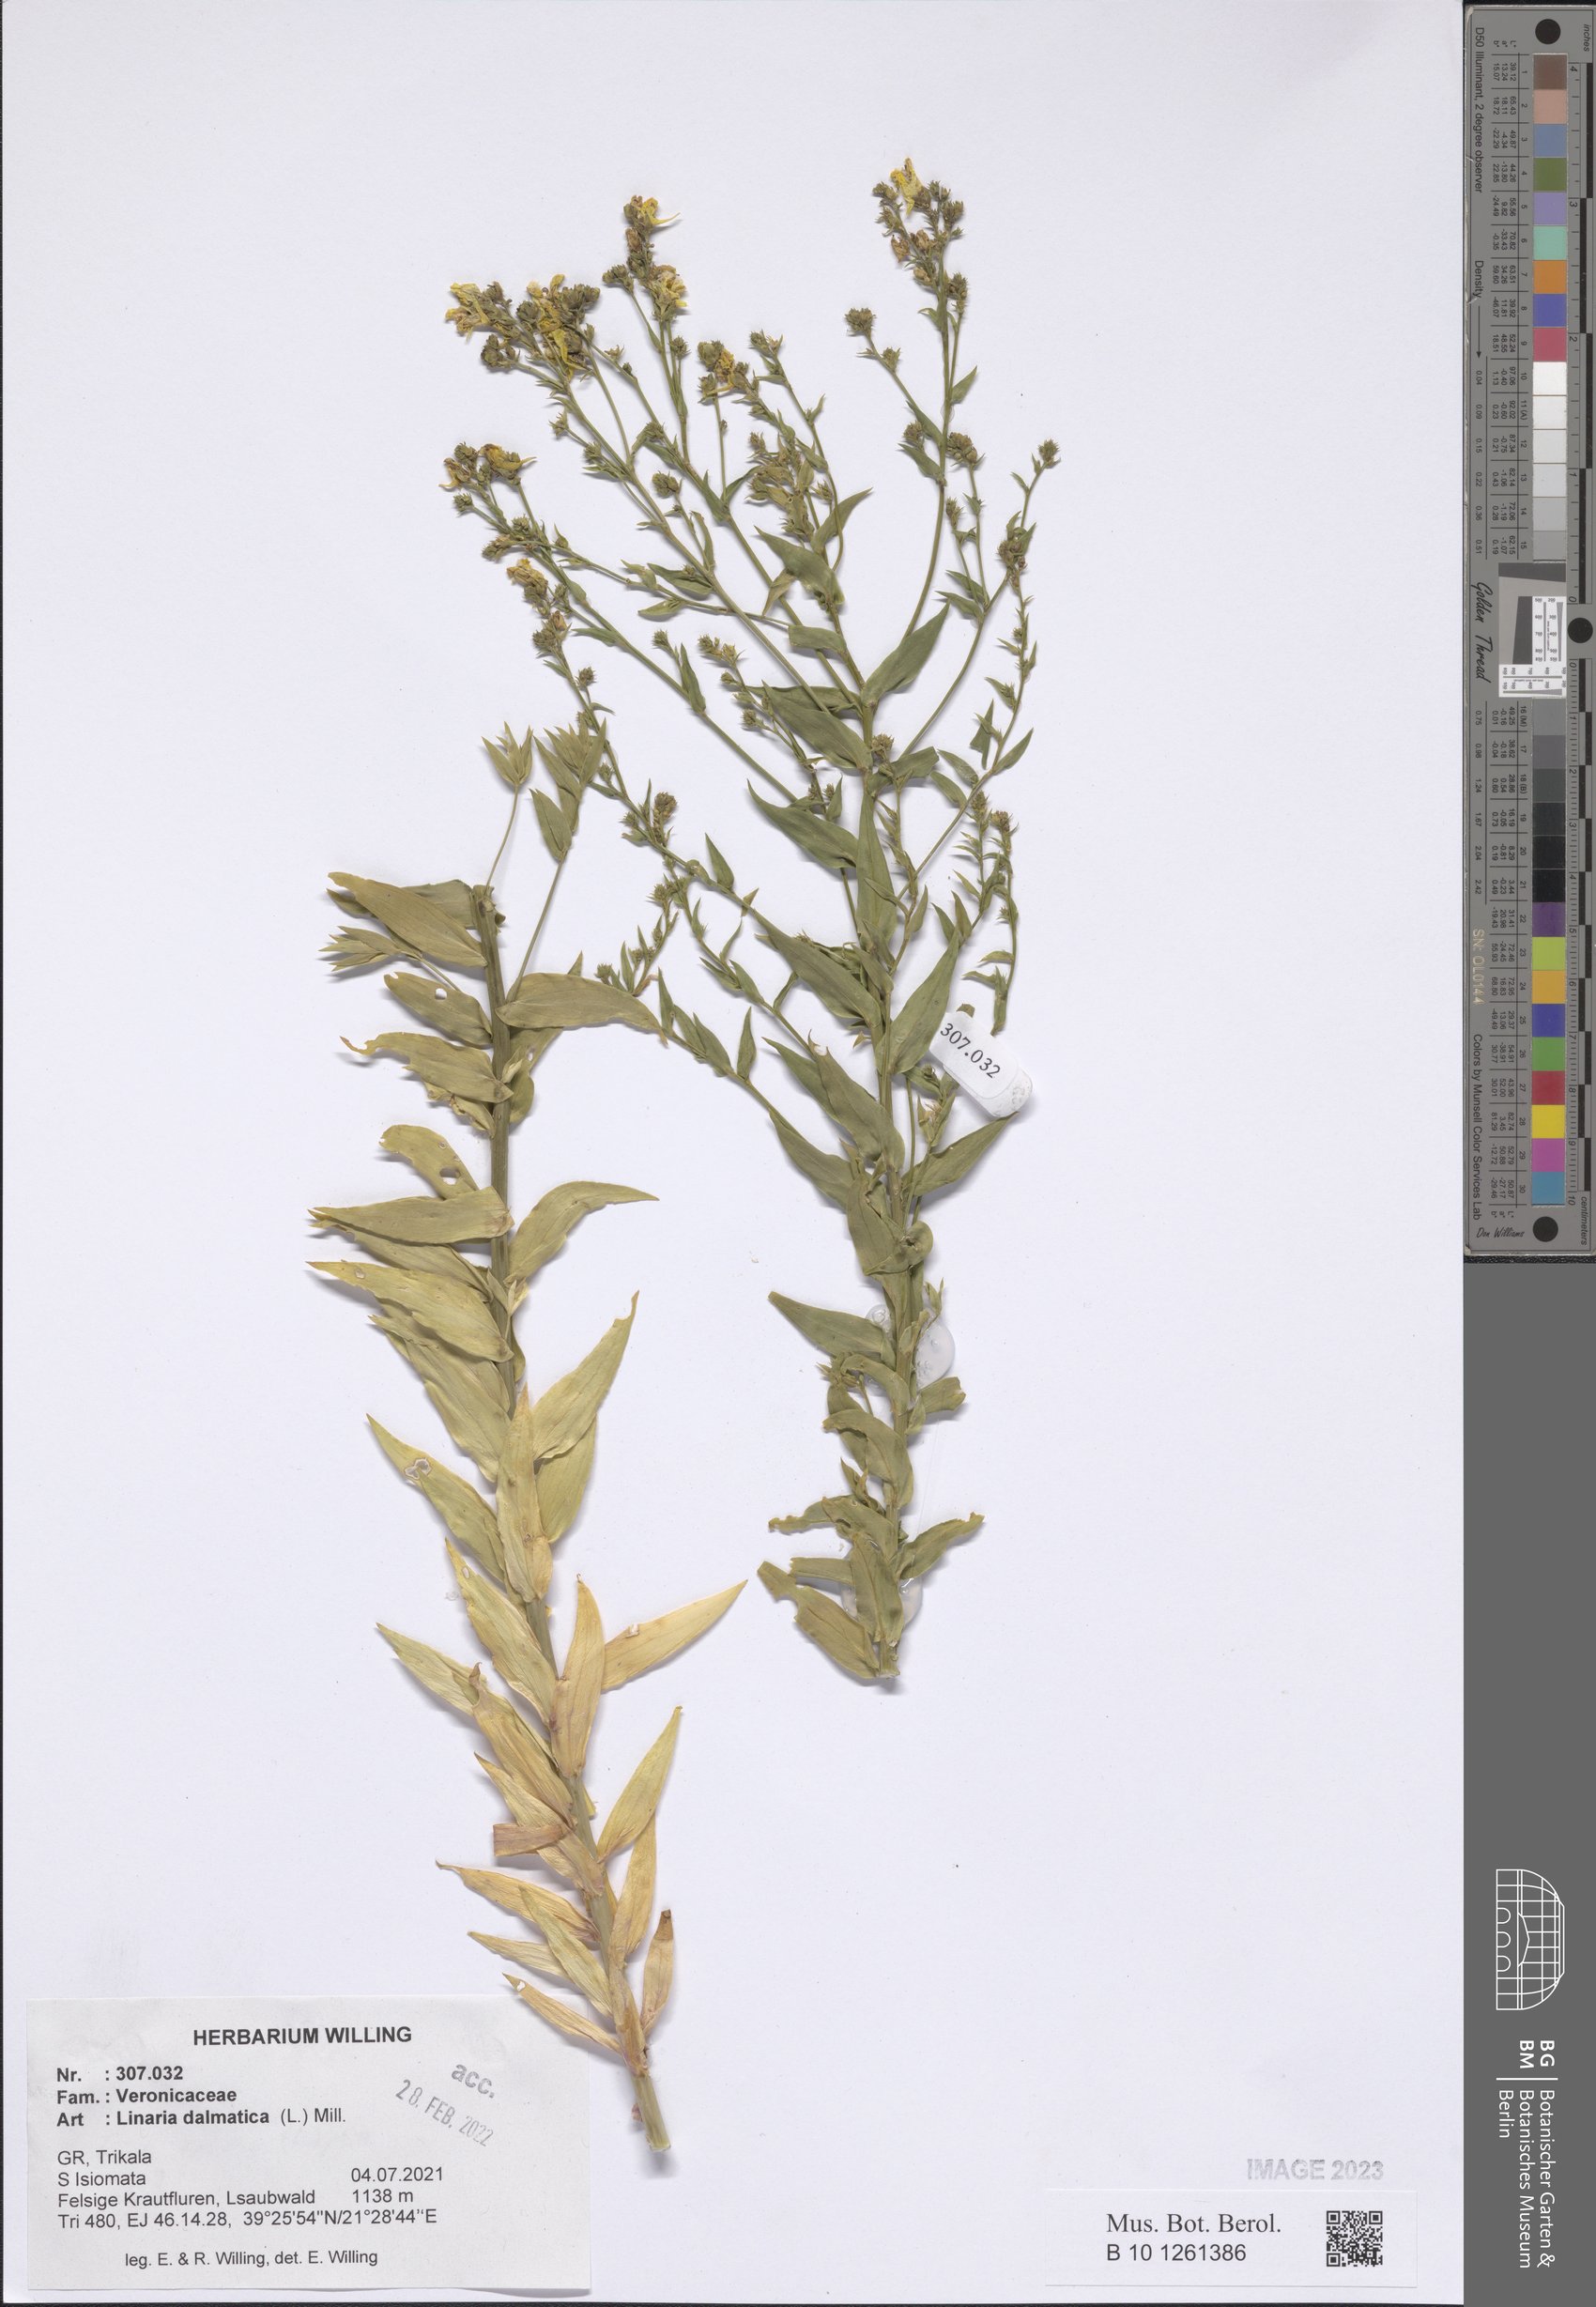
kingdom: Plantae
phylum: Tracheophyta
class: Magnoliopsida
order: Lamiales
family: Plantaginaceae
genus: Linaria
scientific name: Linaria dalmatica
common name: Dalmatian toadflax
